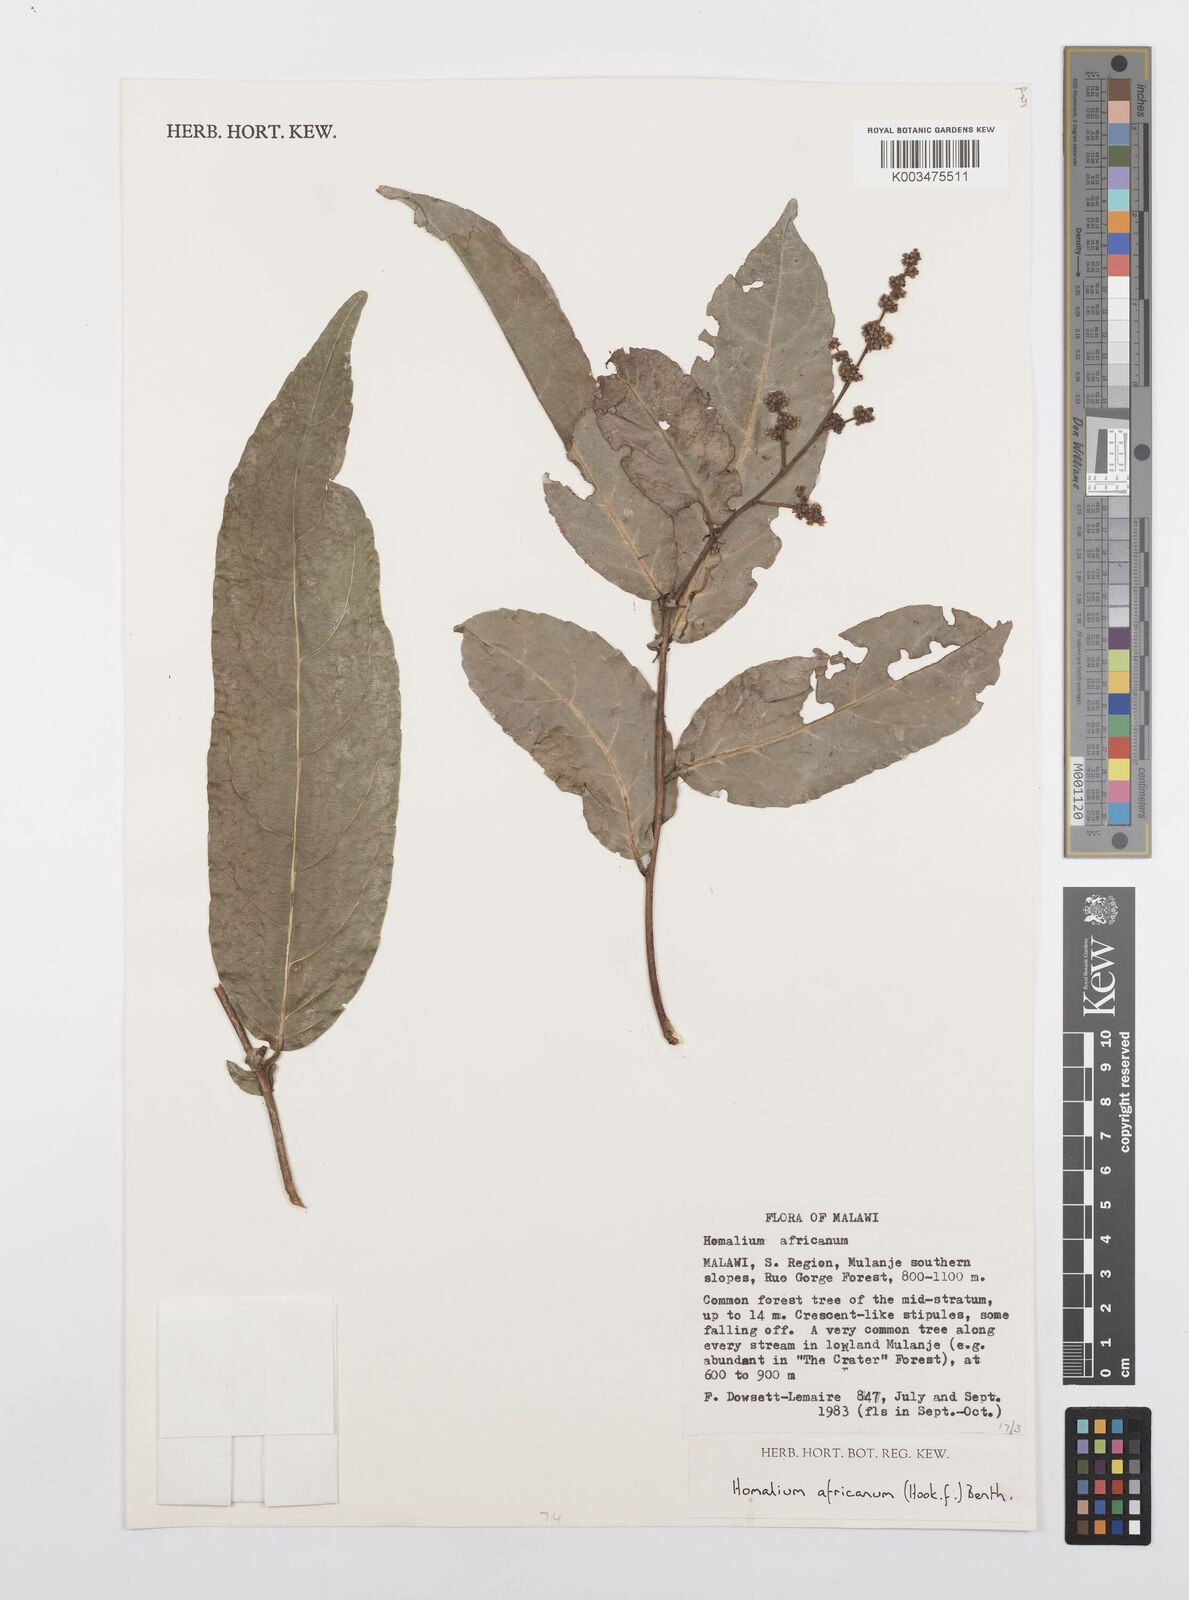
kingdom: Plantae
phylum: Tracheophyta
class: Magnoliopsida
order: Malpighiales
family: Salicaceae
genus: Homalium
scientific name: Homalium africanum
